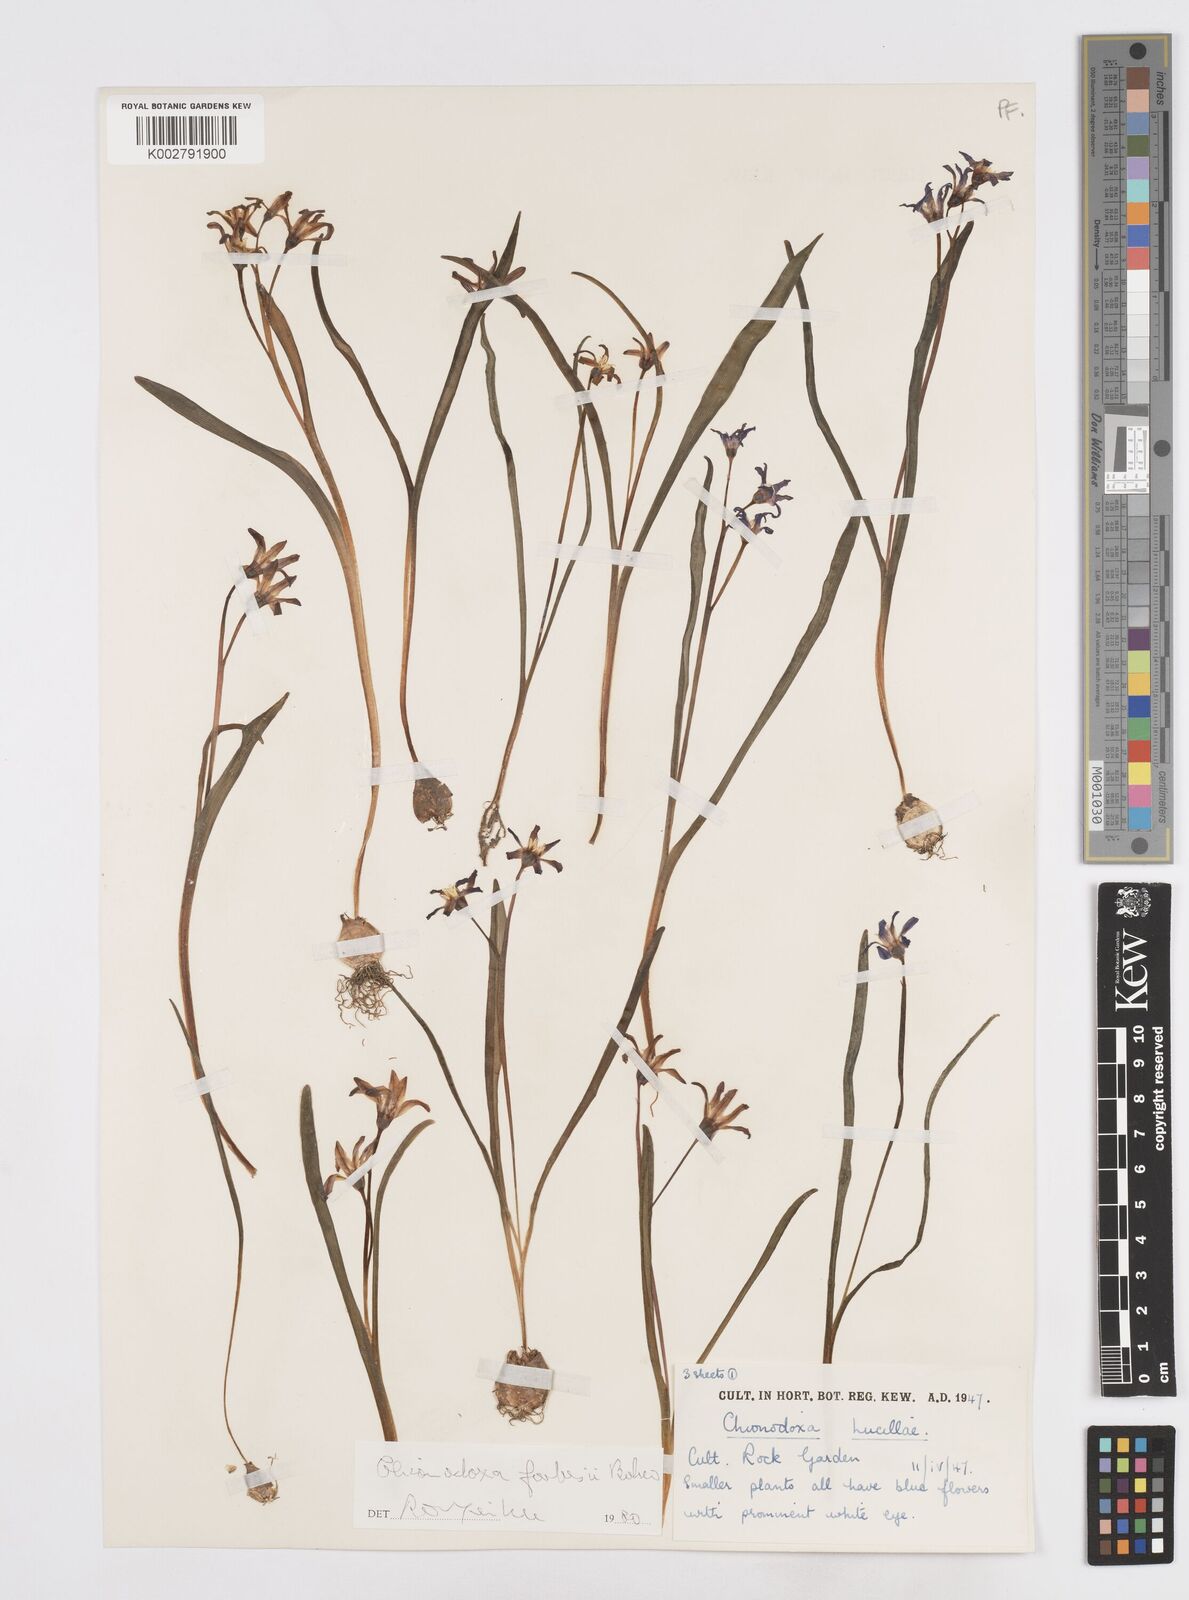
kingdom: Plantae
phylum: Tracheophyta
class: Liliopsida
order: Asparagales
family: Asparagaceae
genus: Scilla
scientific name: Scilla forbesii
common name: Glory-of-the-snow
